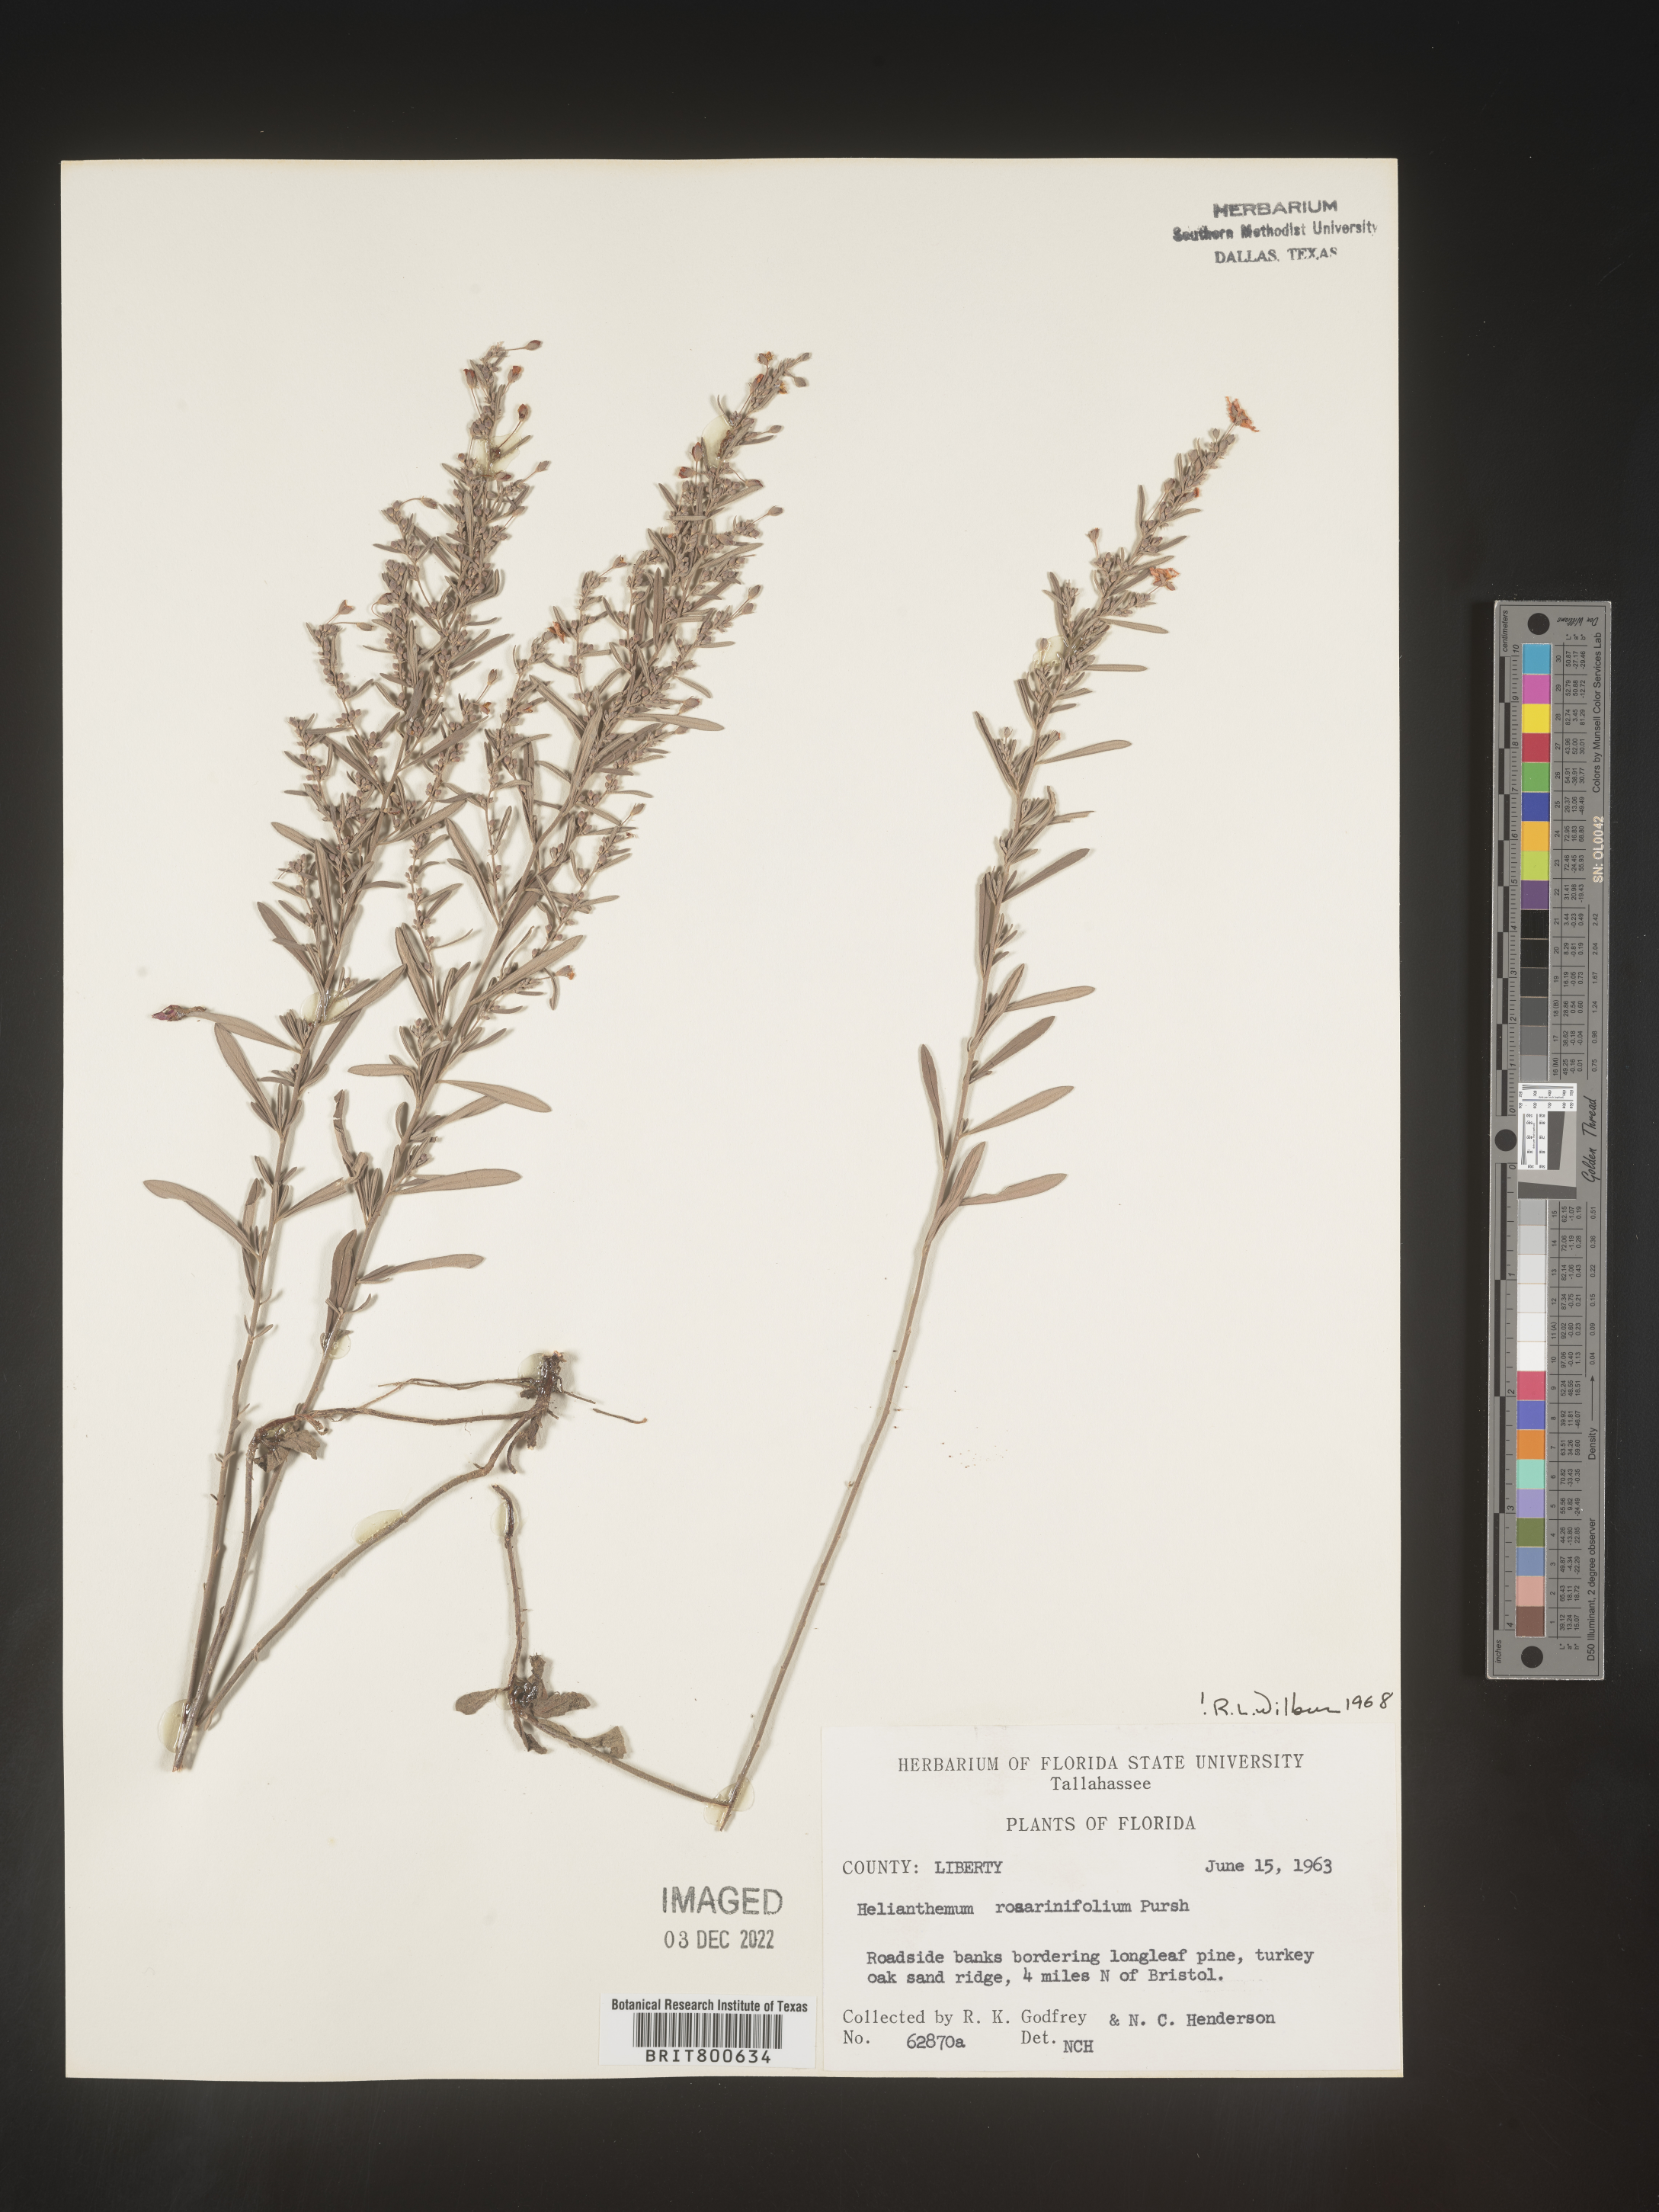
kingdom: Plantae
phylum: Tracheophyta
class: Magnoliopsida
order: Malvales
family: Cistaceae
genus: Helianthemum
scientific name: Helianthemum
